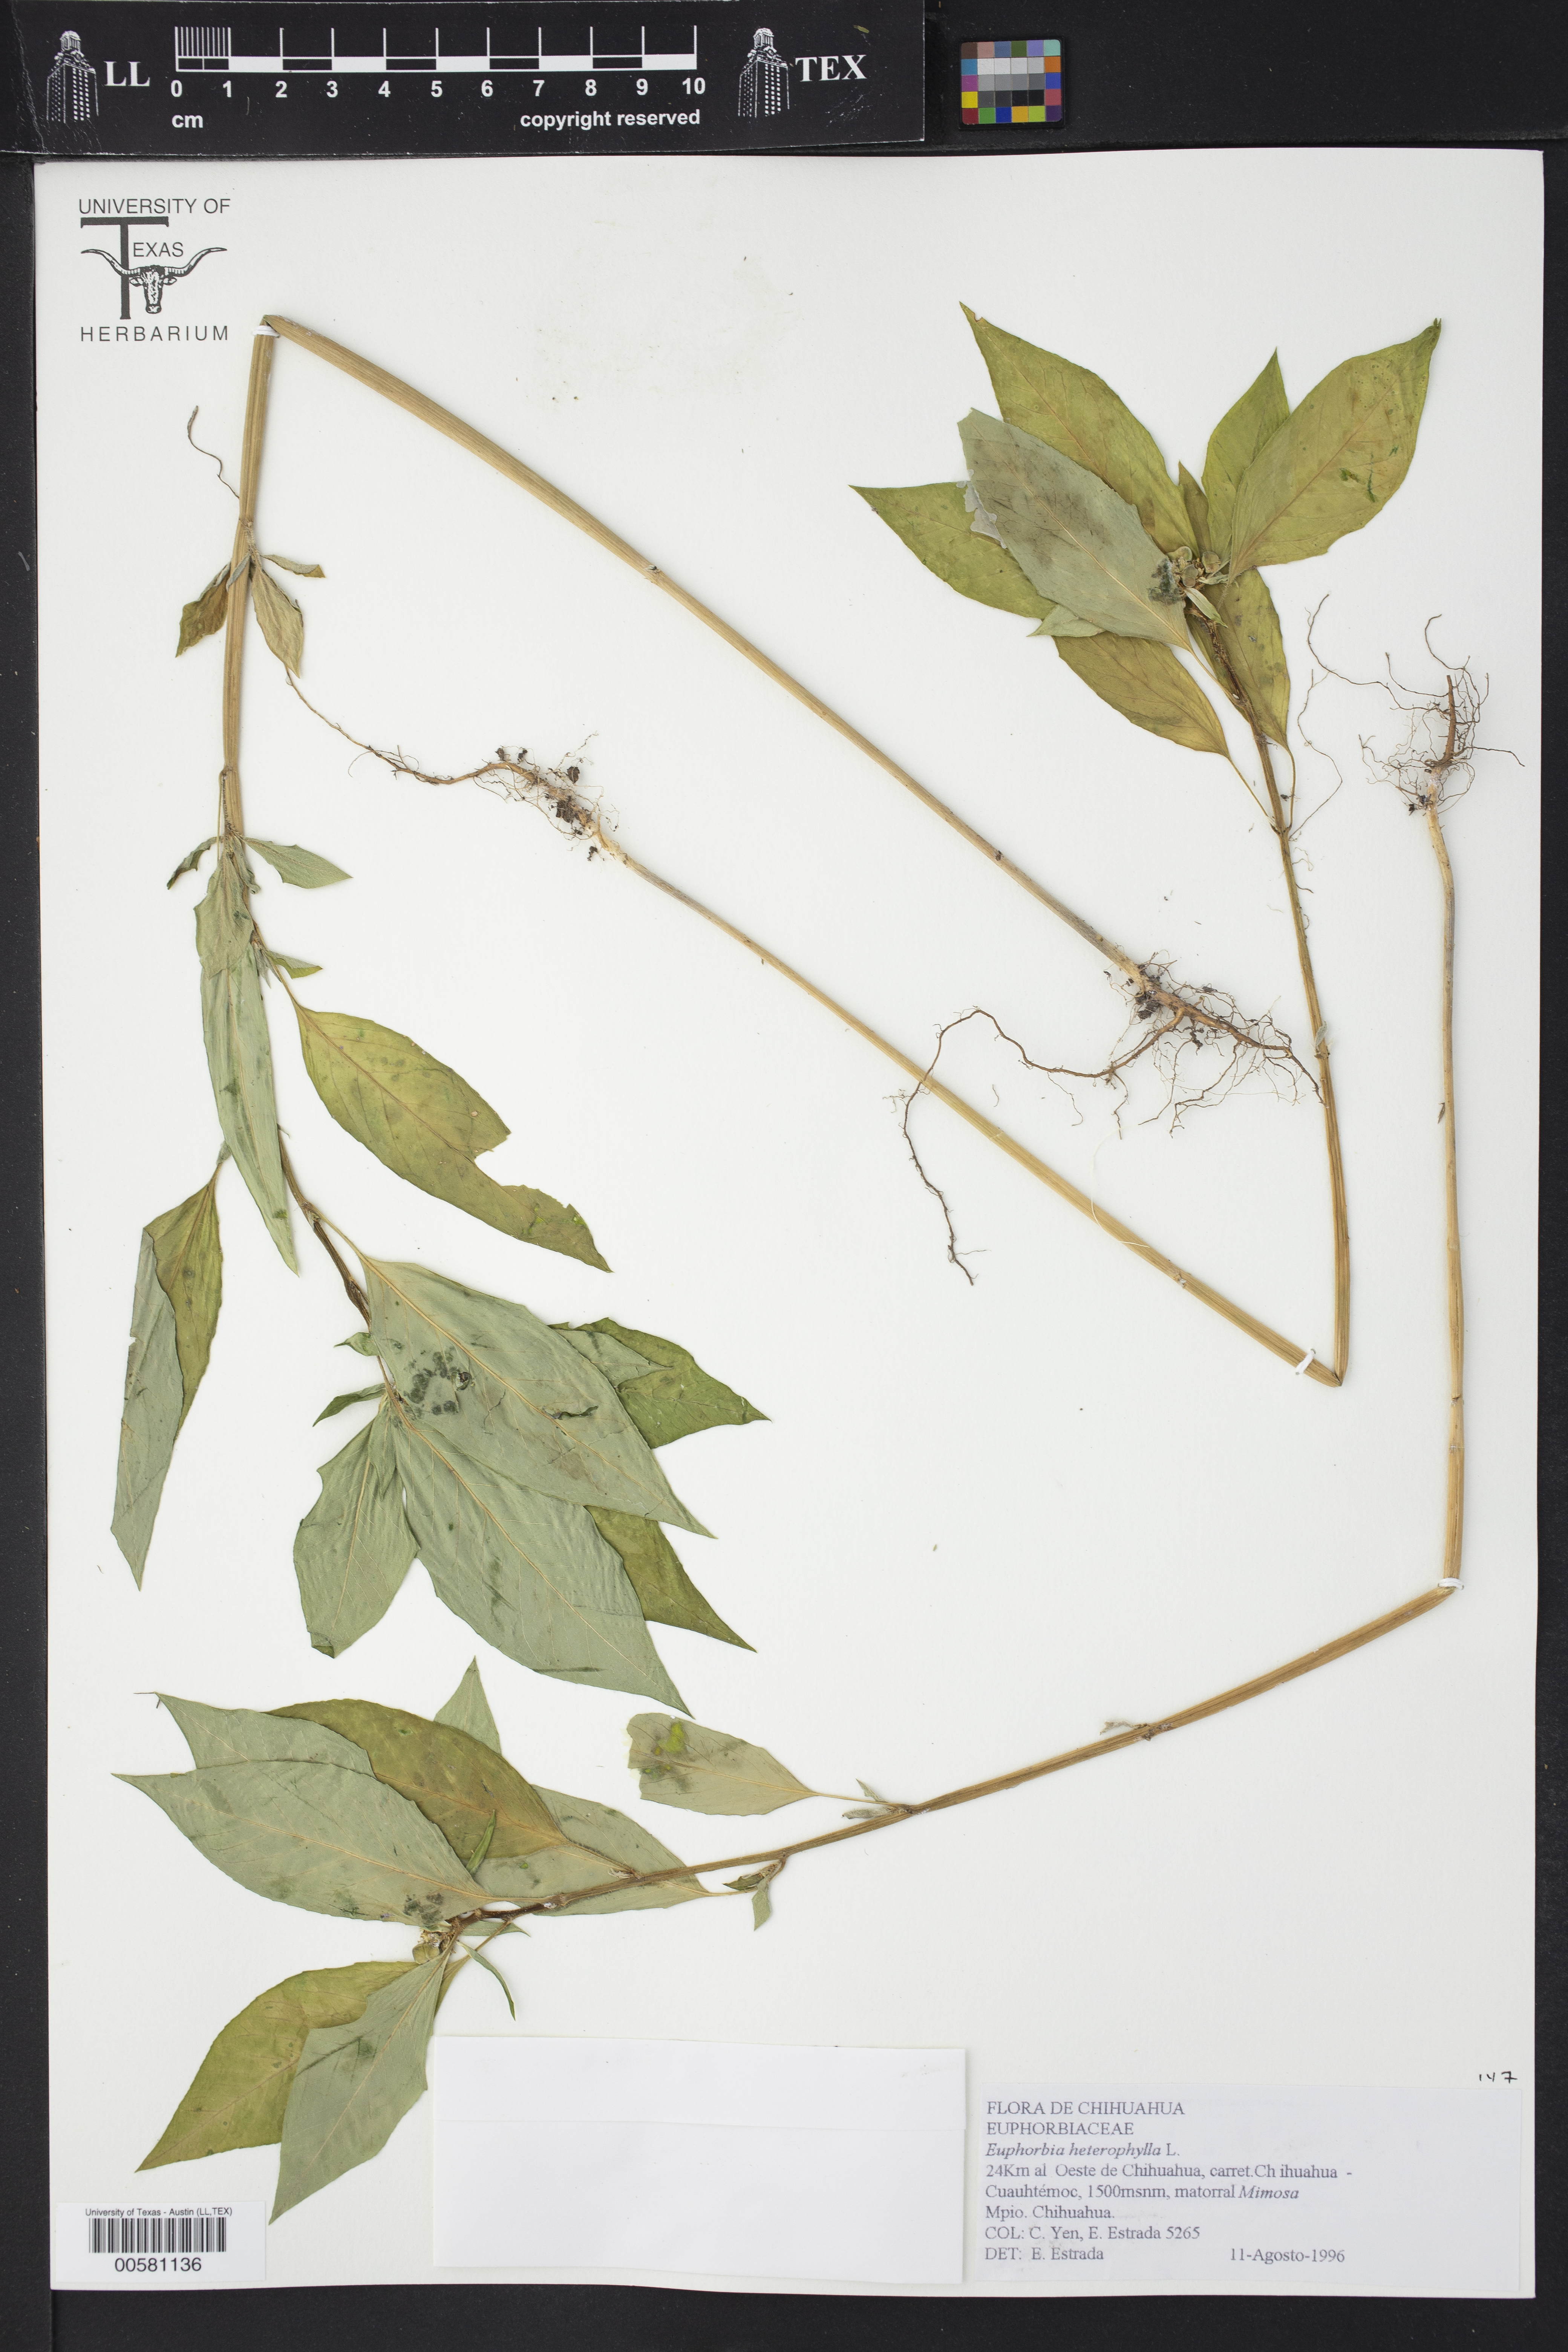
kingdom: Plantae
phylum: Tracheophyta
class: Magnoliopsida
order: Malpighiales
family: Euphorbiaceae
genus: Euphorbia
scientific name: Euphorbia heterophylla
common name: Mexican fireplant
